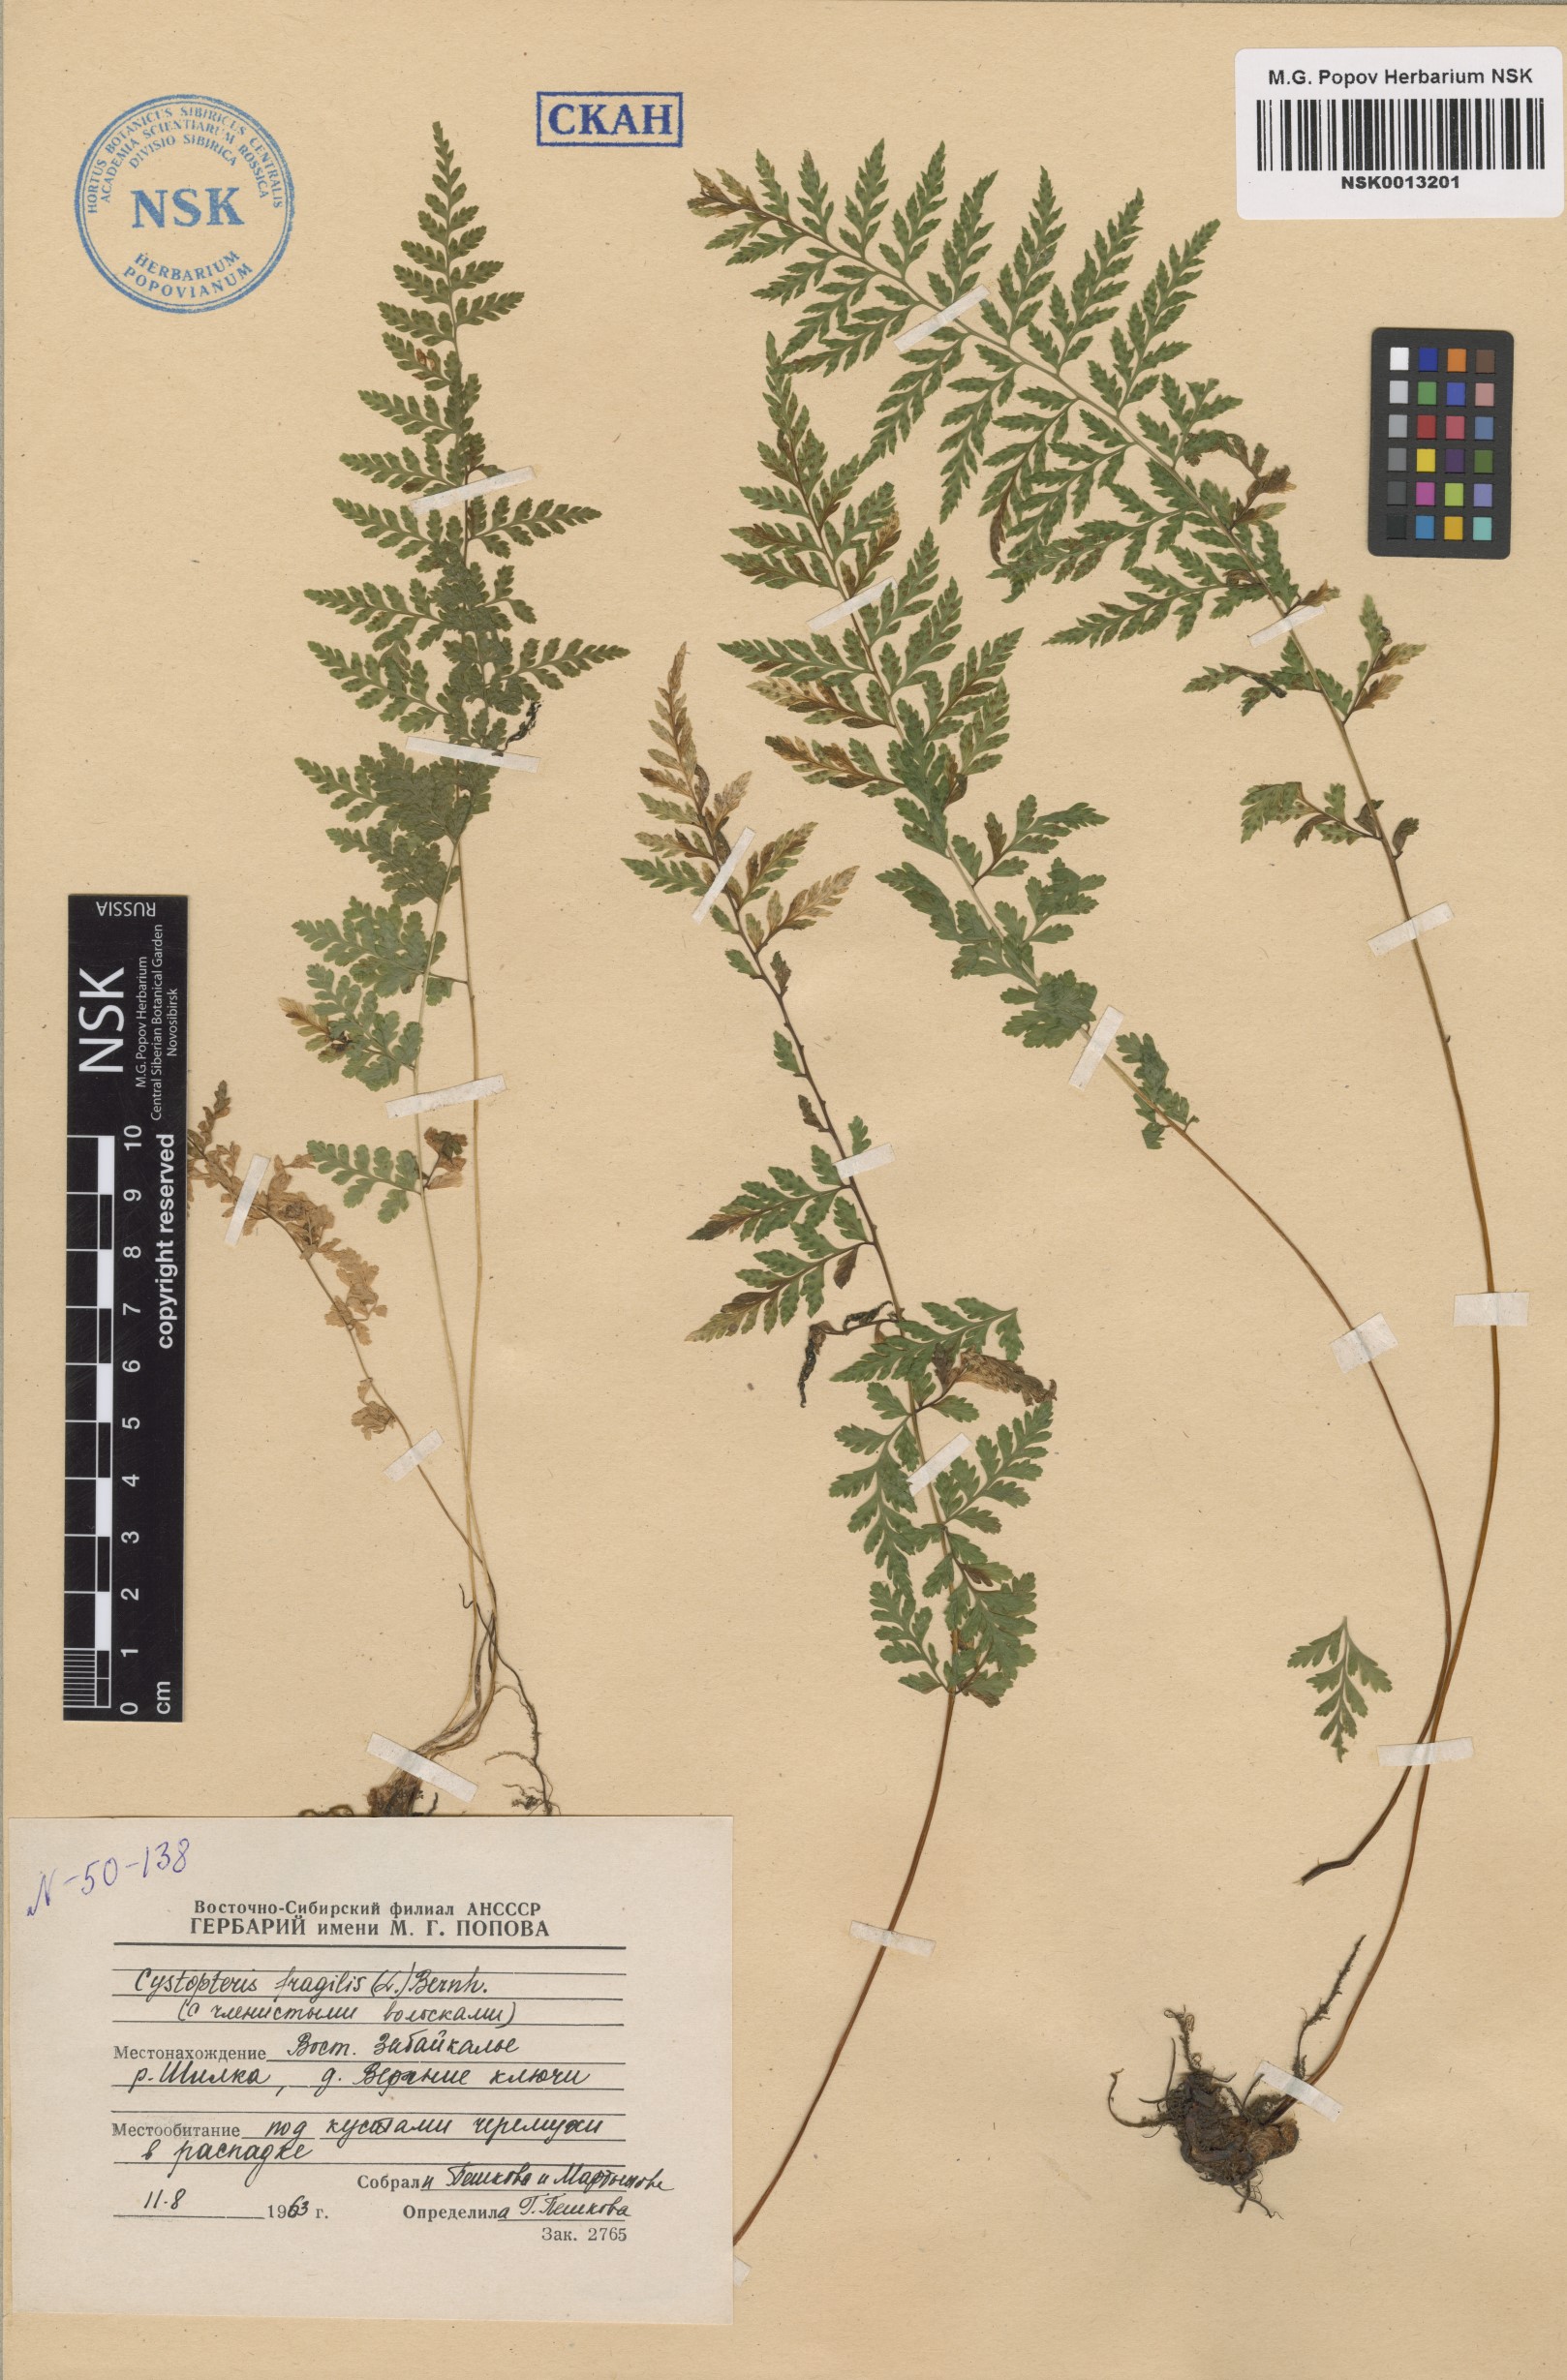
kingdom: Plantae
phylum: Tracheophyta
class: Polypodiopsida
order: Polypodiales
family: Cystopteridaceae
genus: Cystopteris
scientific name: Cystopteris fragilis
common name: Brittle bladder fern
